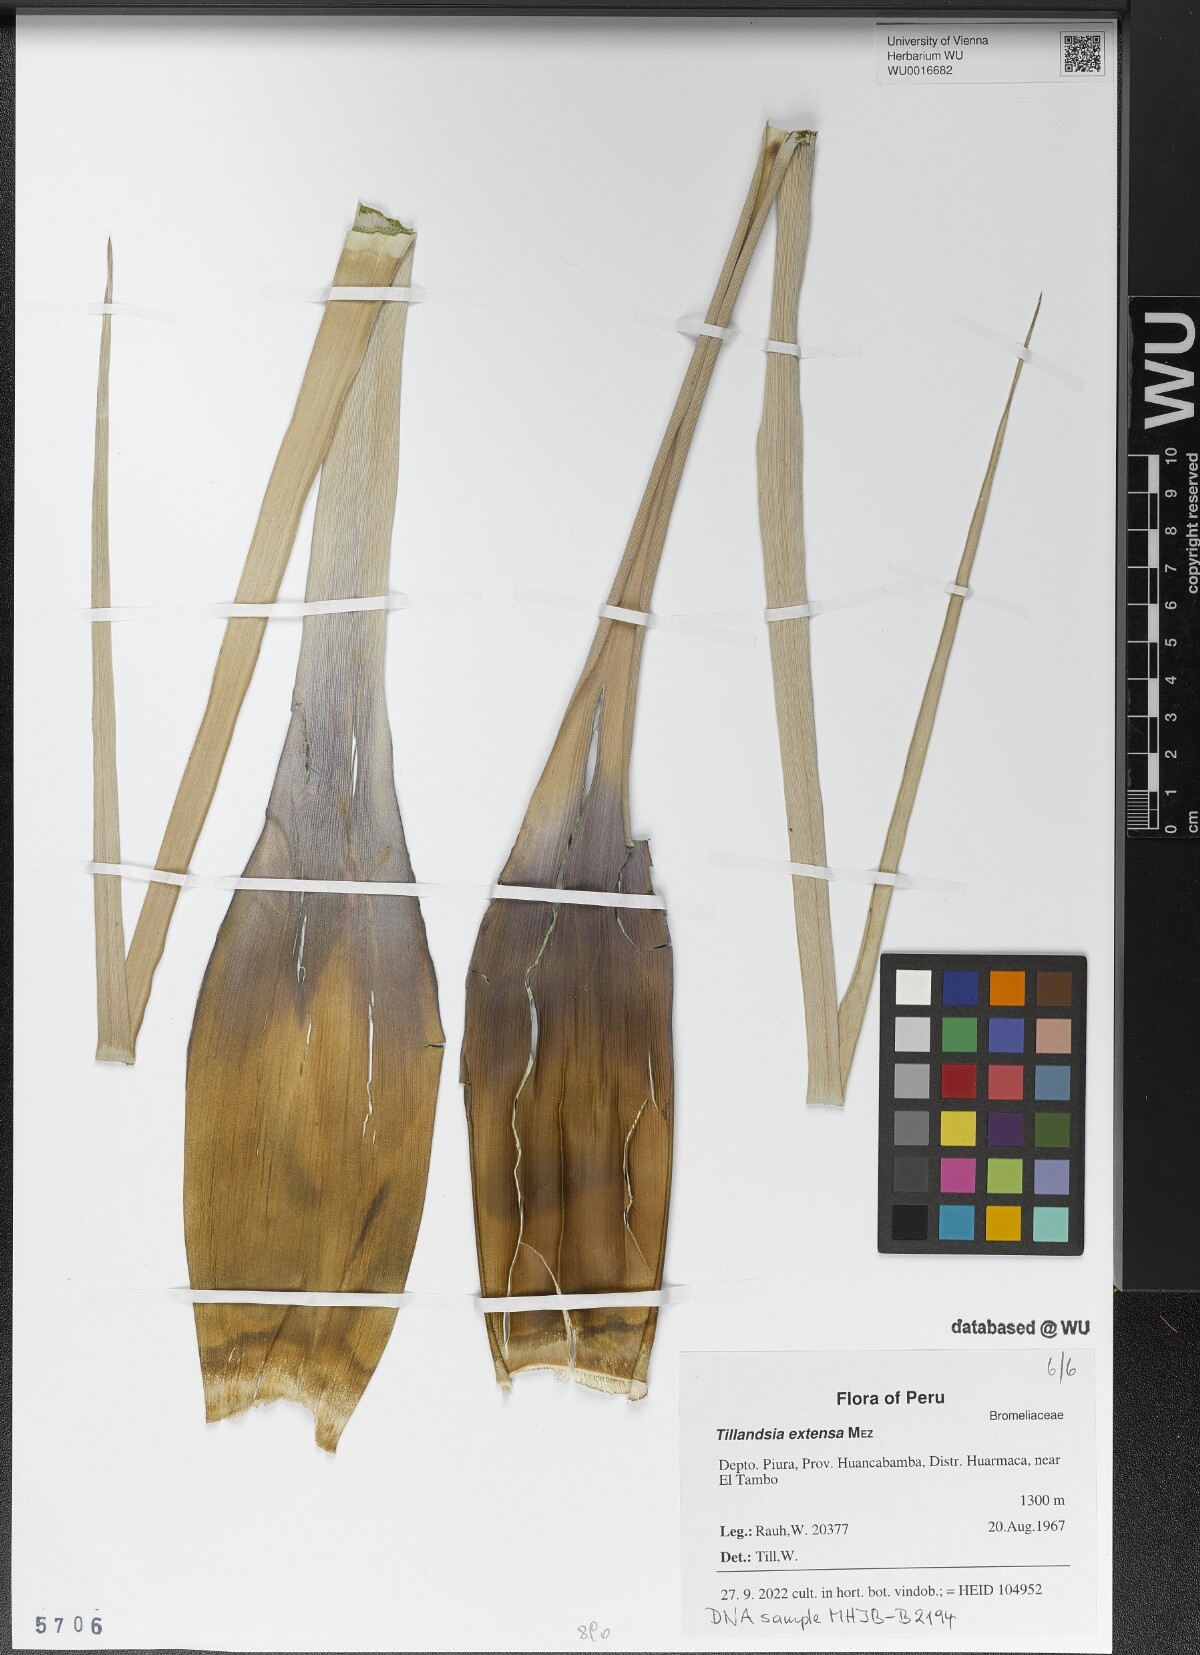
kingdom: Plantae
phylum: Tracheophyta
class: Liliopsida
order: Poales
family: Bromeliaceae
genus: Tillandsia
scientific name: Tillandsia extensa
